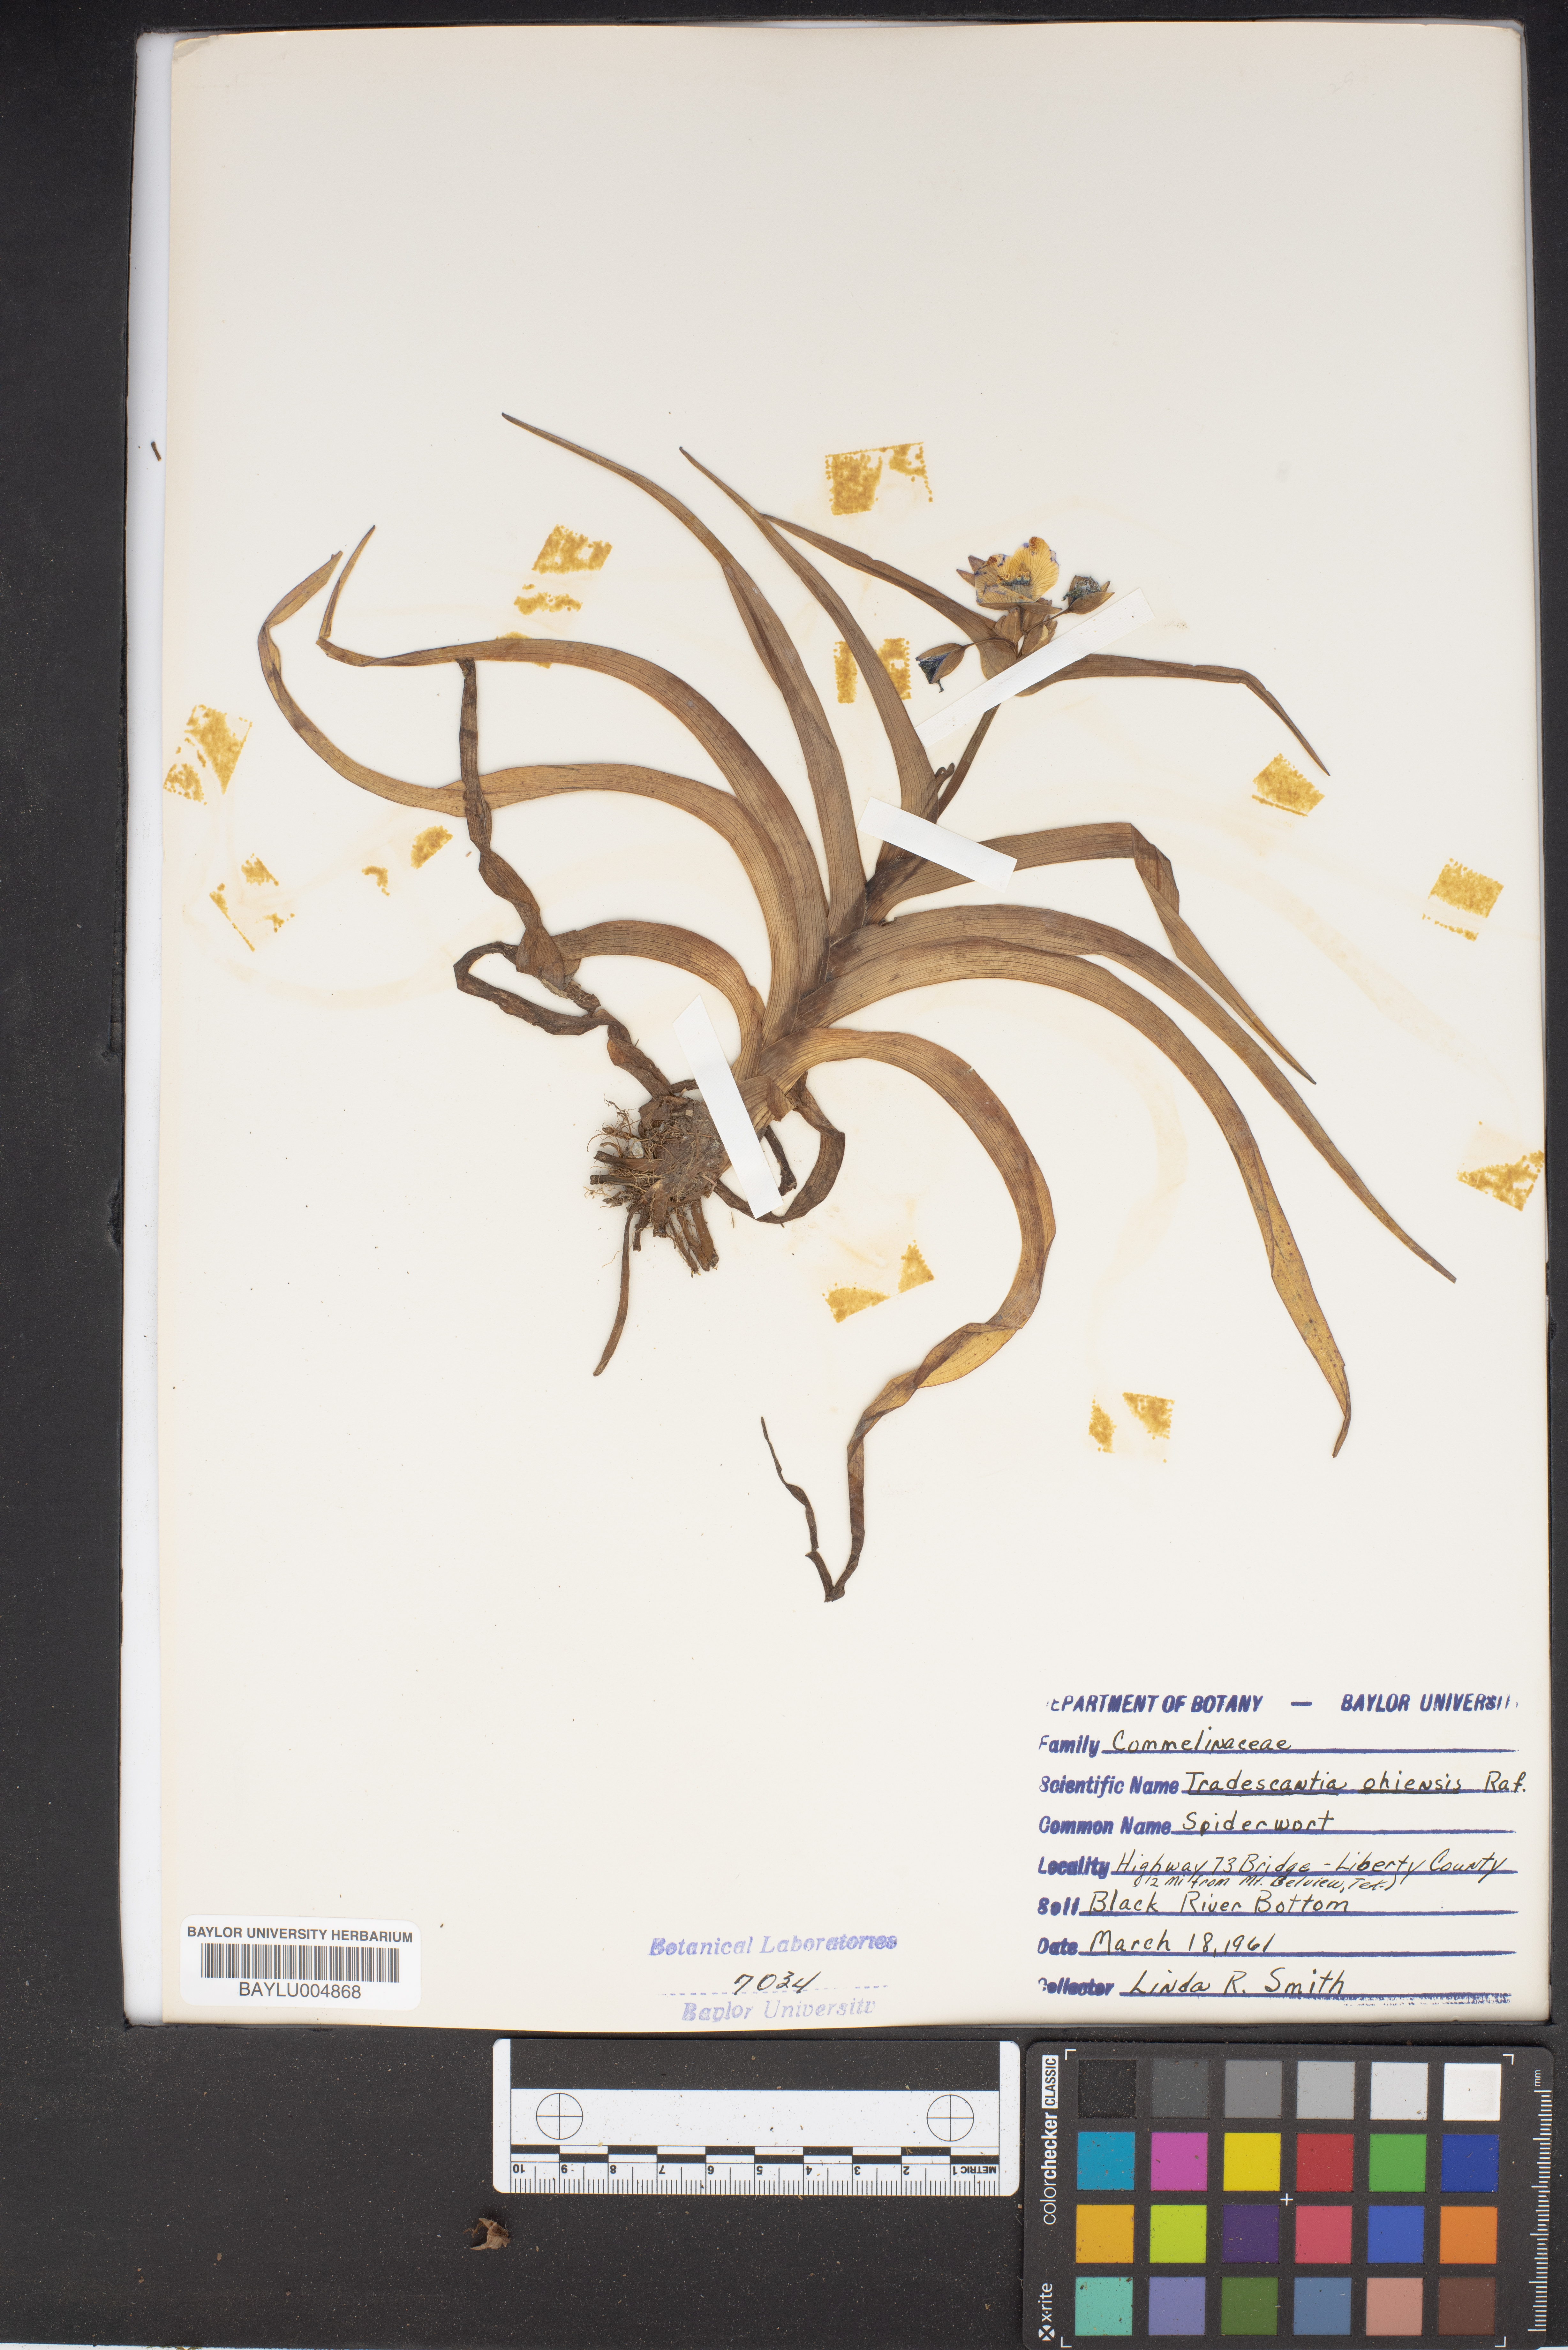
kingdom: Plantae
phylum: Tracheophyta
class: Liliopsida
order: Commelinales
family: Commelinaceae
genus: Tradescantia
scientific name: Tradescantia ohiensis
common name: Ohio spiderwort
